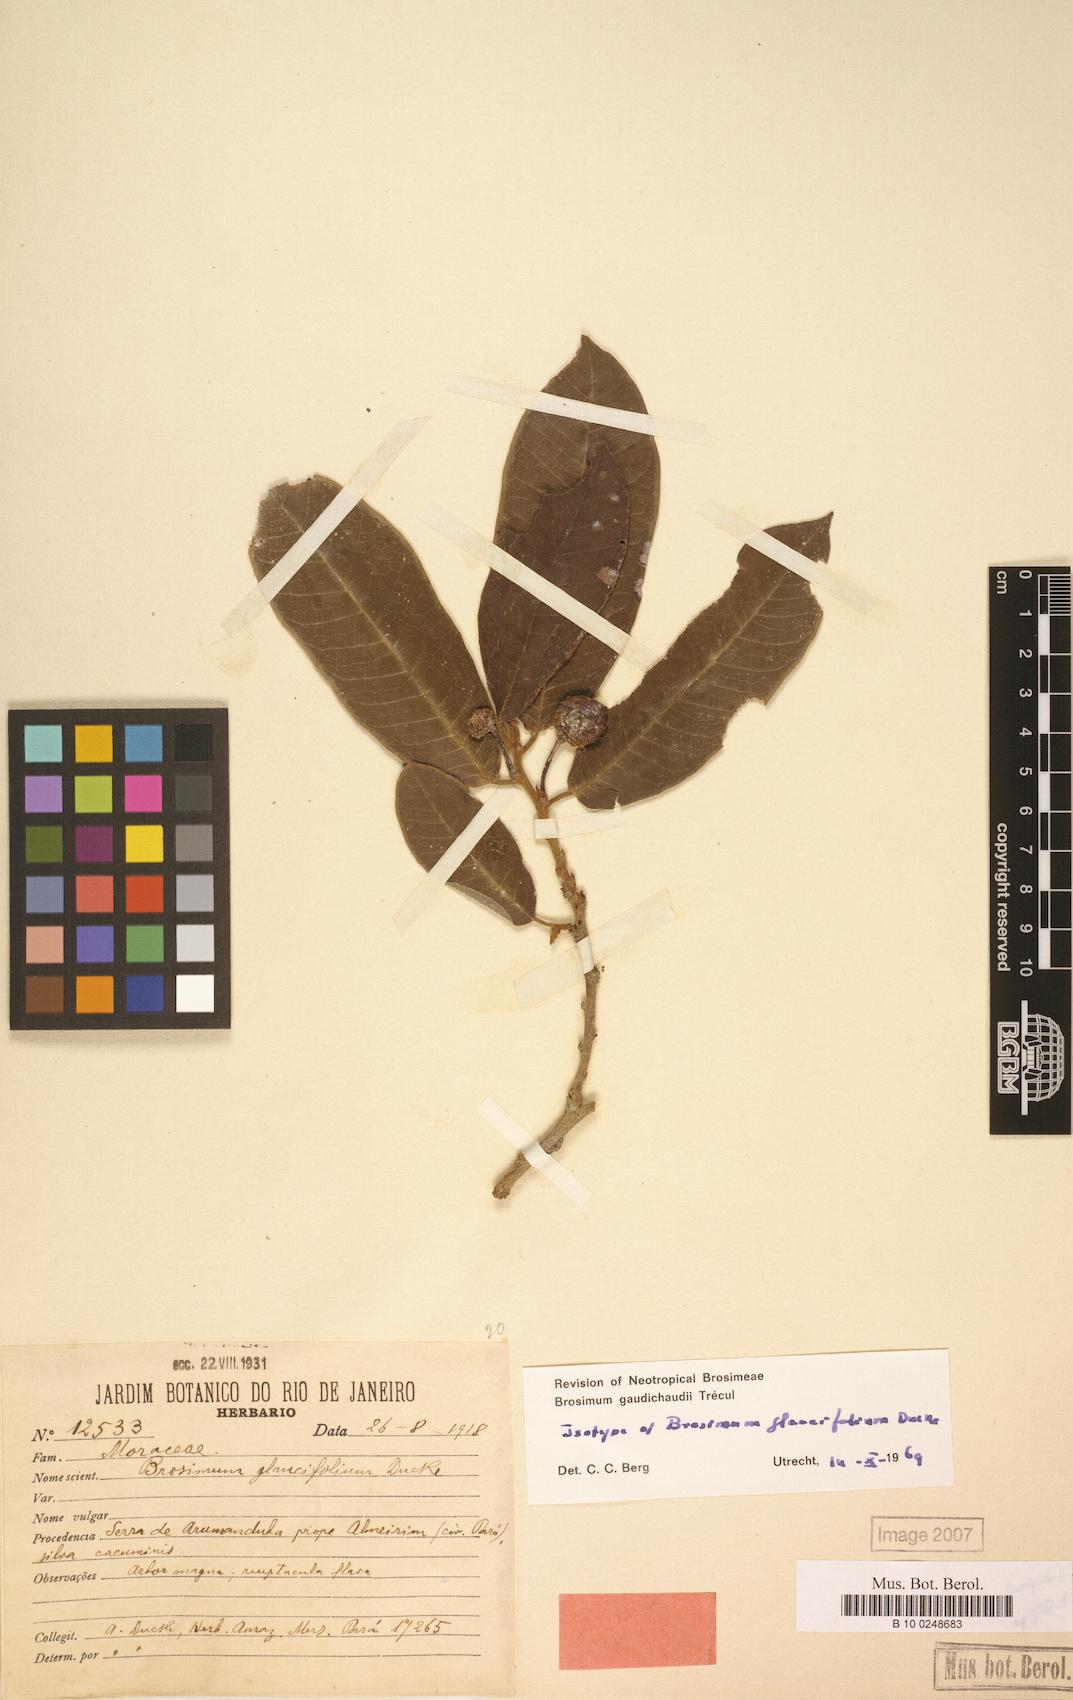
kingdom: Plantae
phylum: Tracheophyta
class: Magnoliopsida
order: Rosales
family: Moraceae
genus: Brosimum
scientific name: Brosimum gaudichaudii
